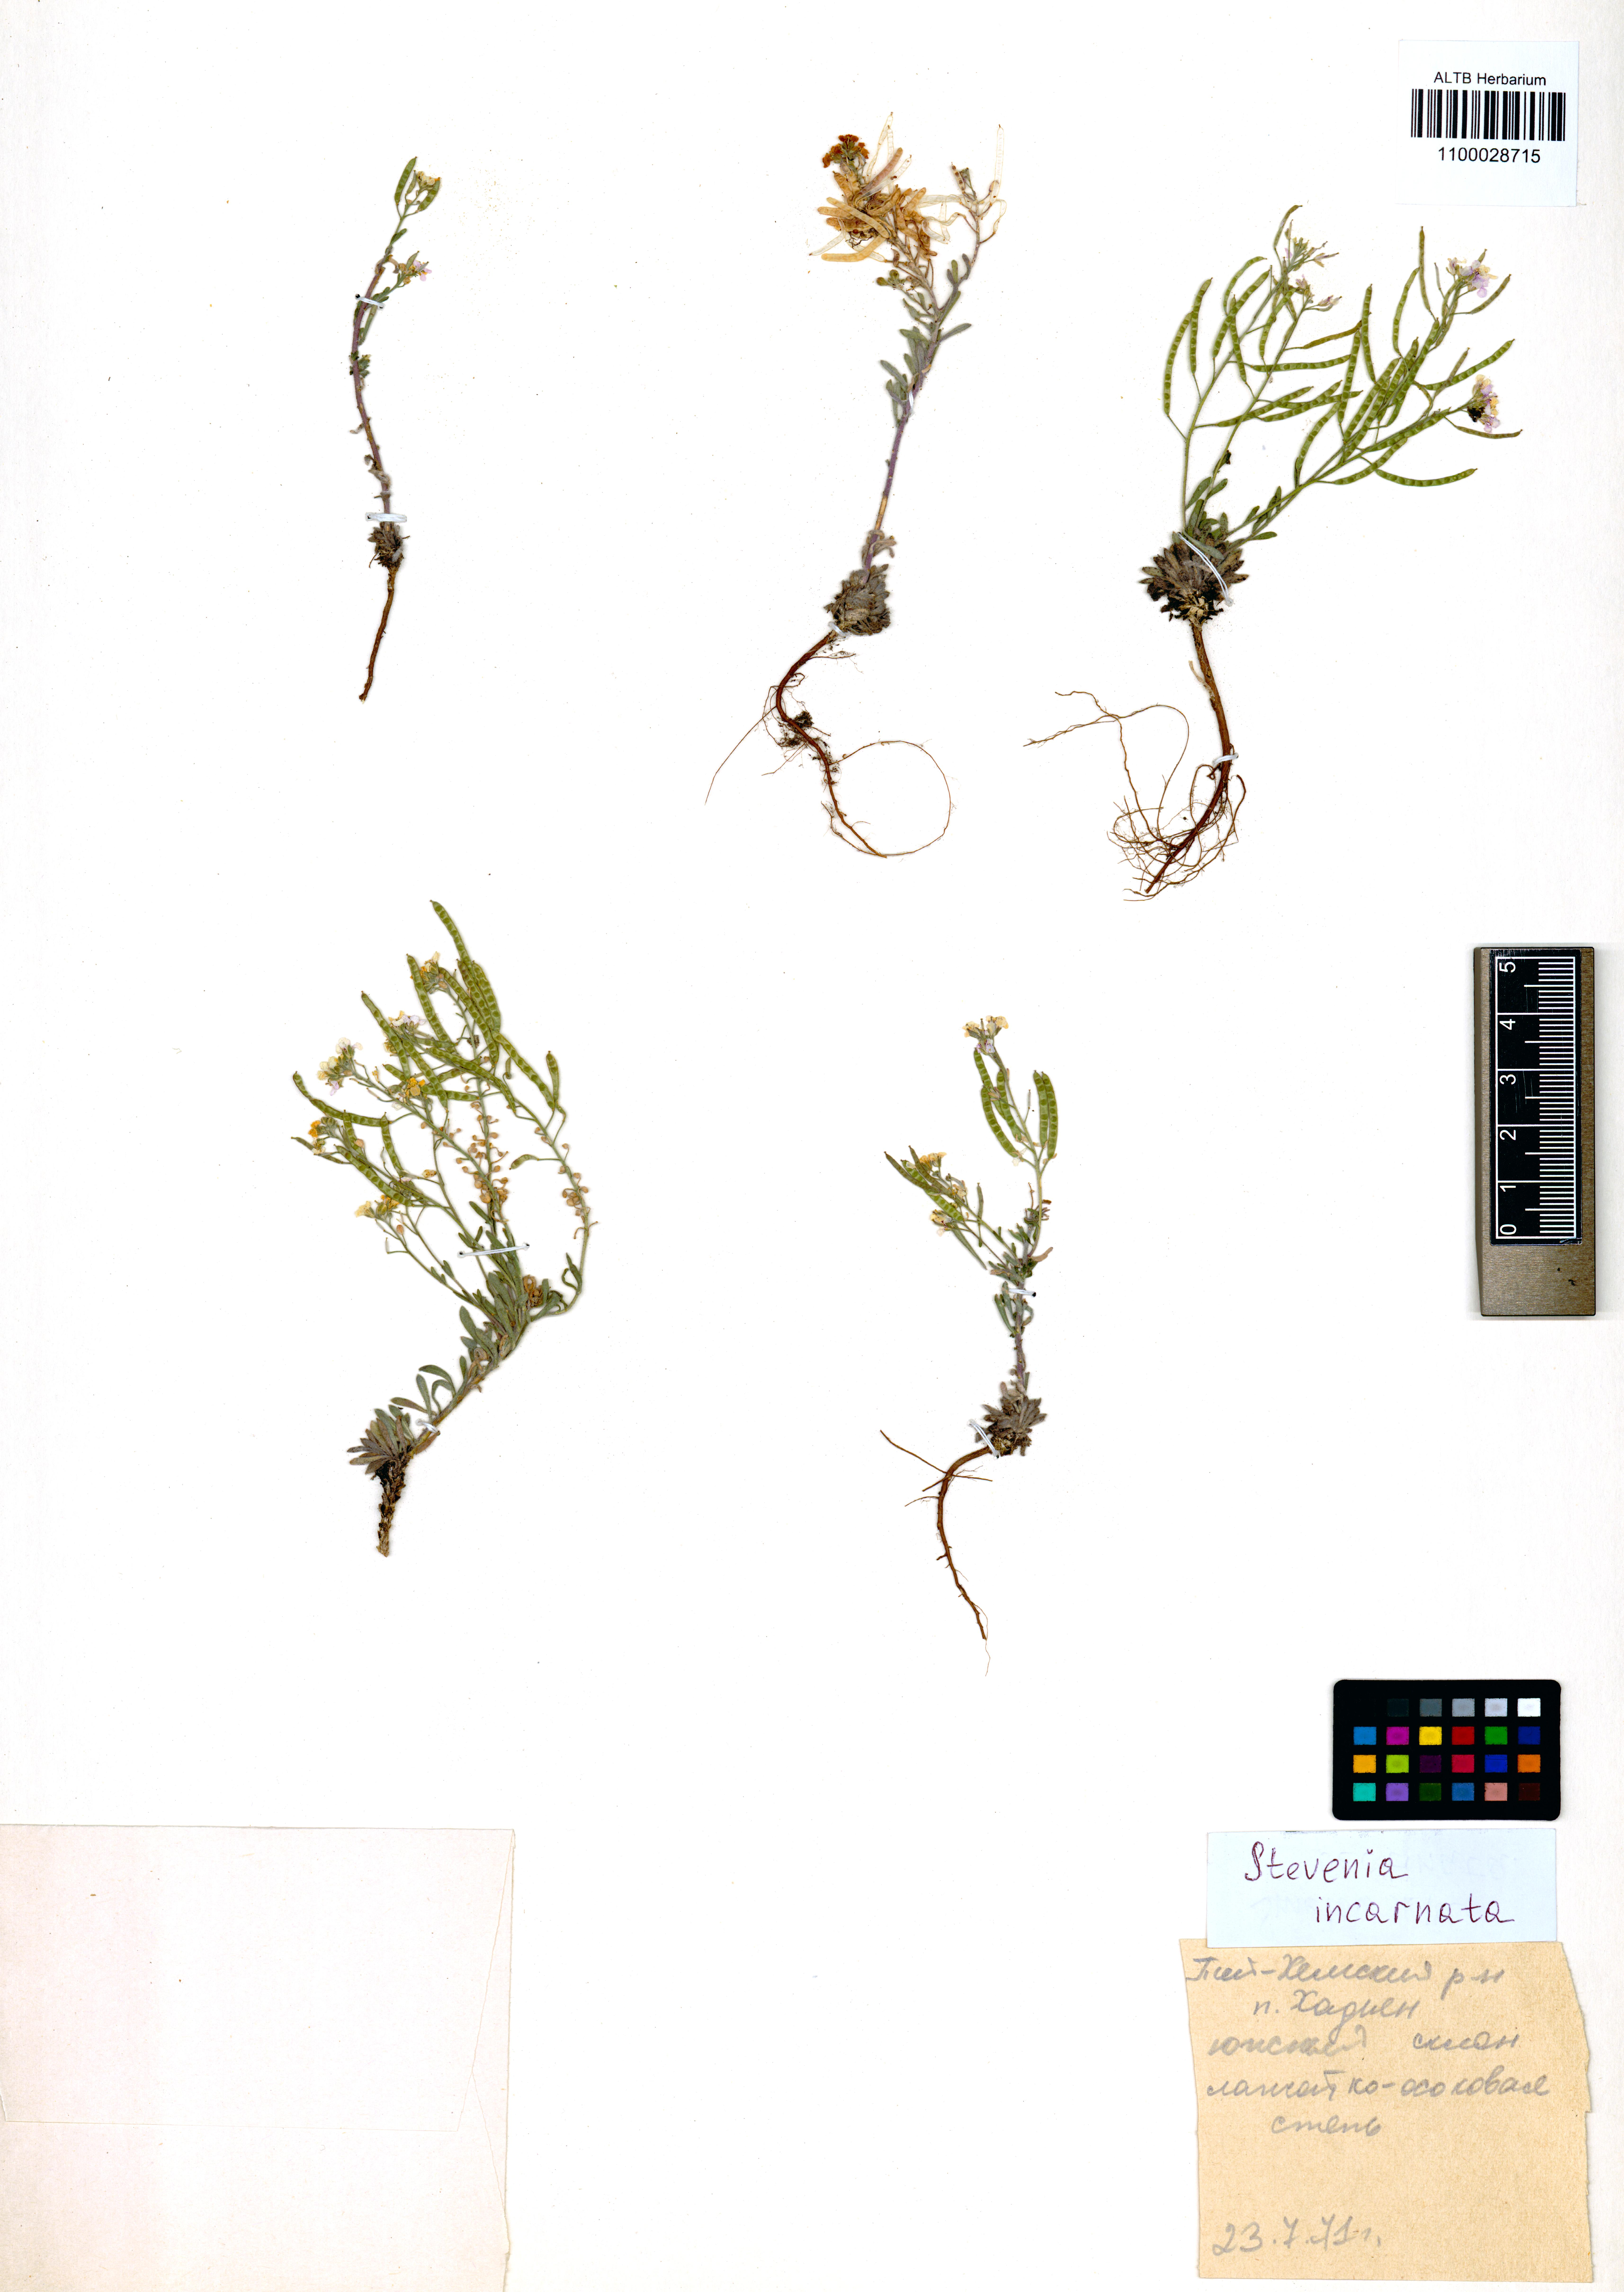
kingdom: Plantae
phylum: Tracheophyta
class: Magnoliopsida
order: Brassicales
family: Brassicaceae
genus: Stevenia
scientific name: Stevenia incarnata
